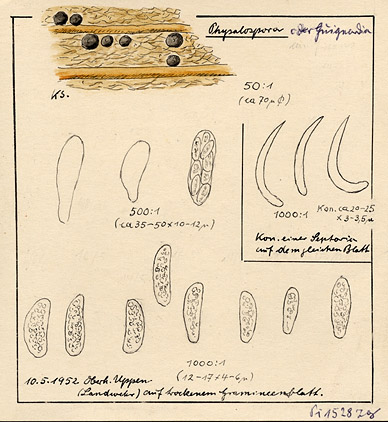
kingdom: Fungi
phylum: Ascomycota
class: Sordariomycetes
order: Xylariales
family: Hyponectriaceae
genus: Physalospora
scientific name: Physalospora
